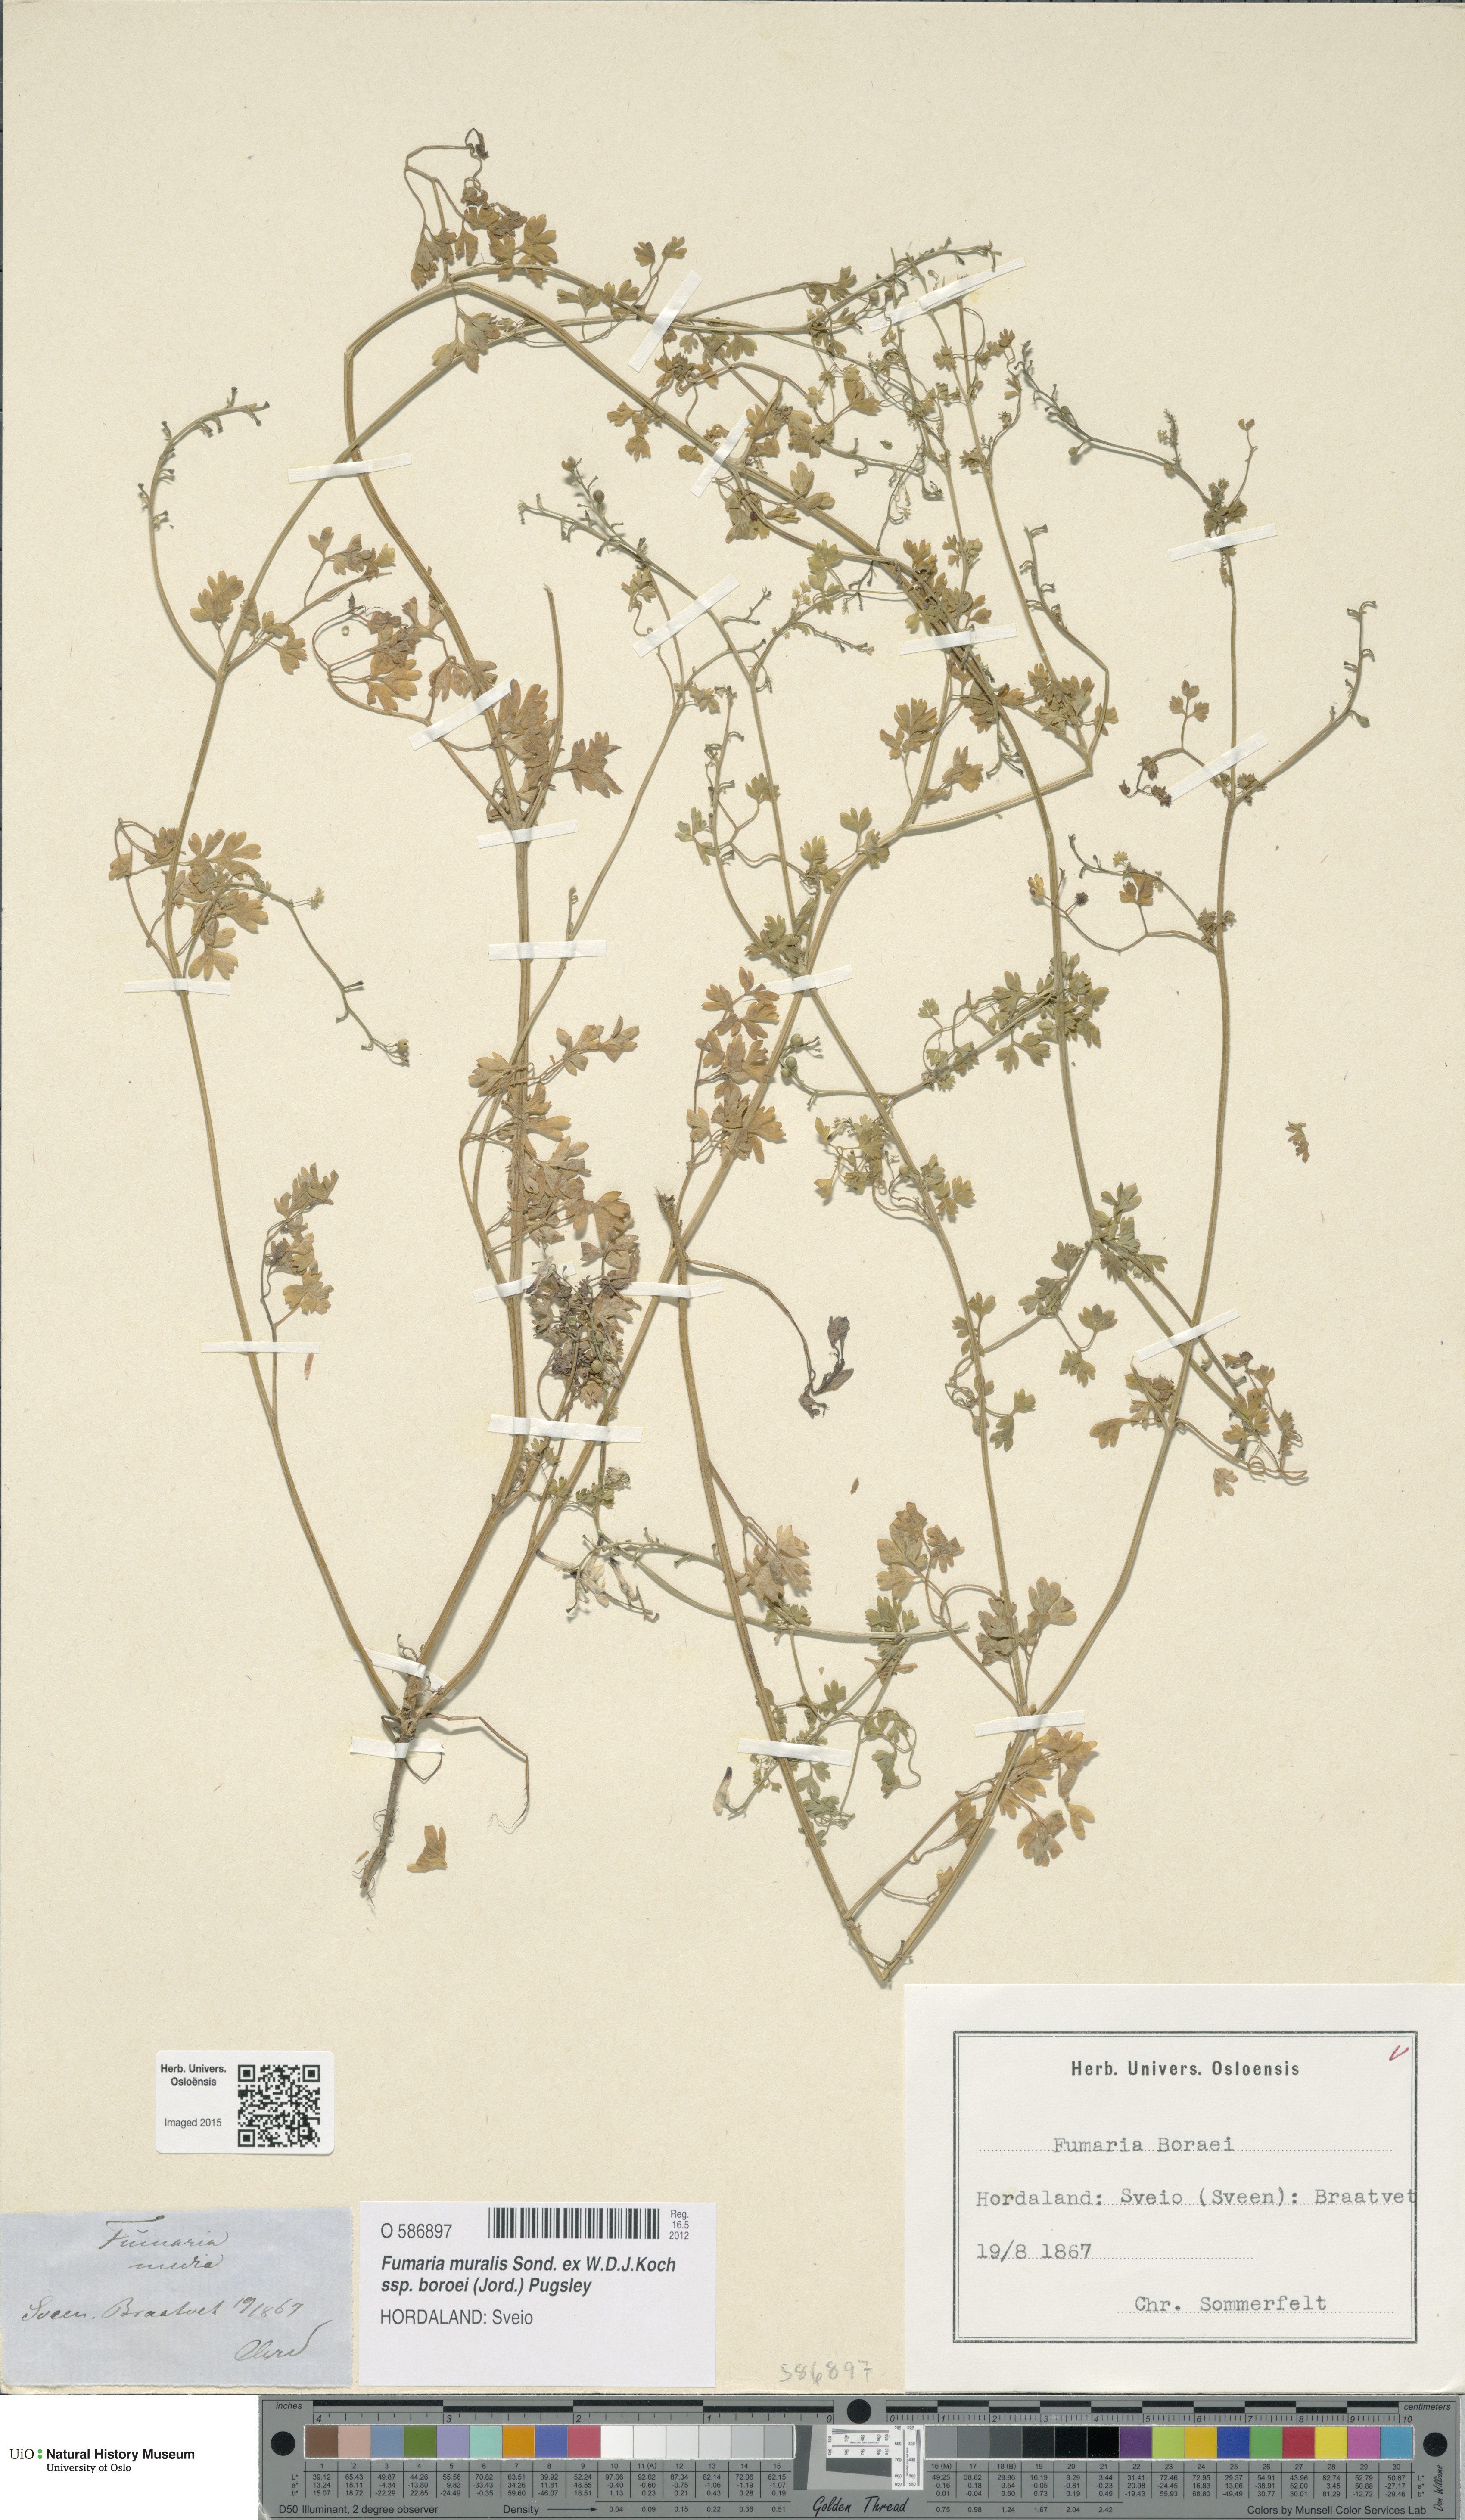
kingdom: Plantae
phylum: Tracheophyta
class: Magnoliopsida
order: Ranunculales
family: Papaveraceae
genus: Fumaria
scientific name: Fumaria muralis
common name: Common ramping-fumitory
